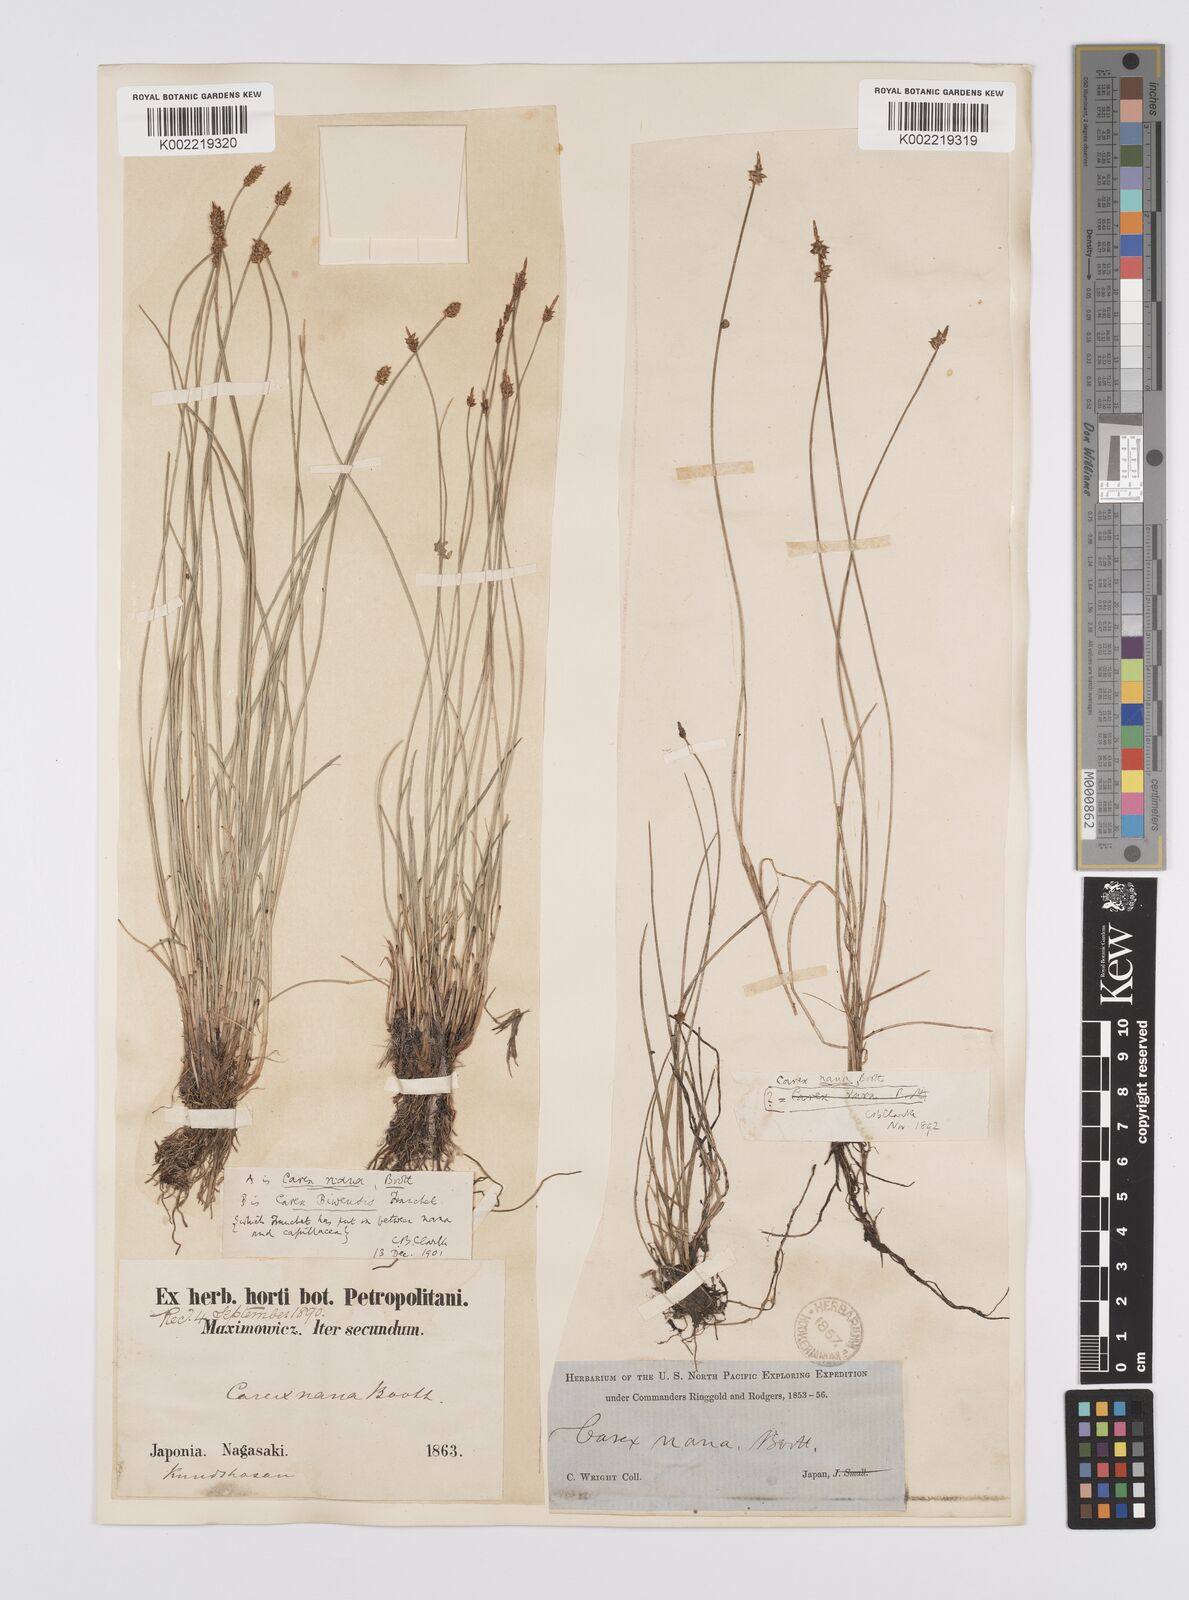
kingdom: Plantae
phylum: Tracheophyta
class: Liliopsida
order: Poales
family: Cyperaceae
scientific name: Cyperaceae
